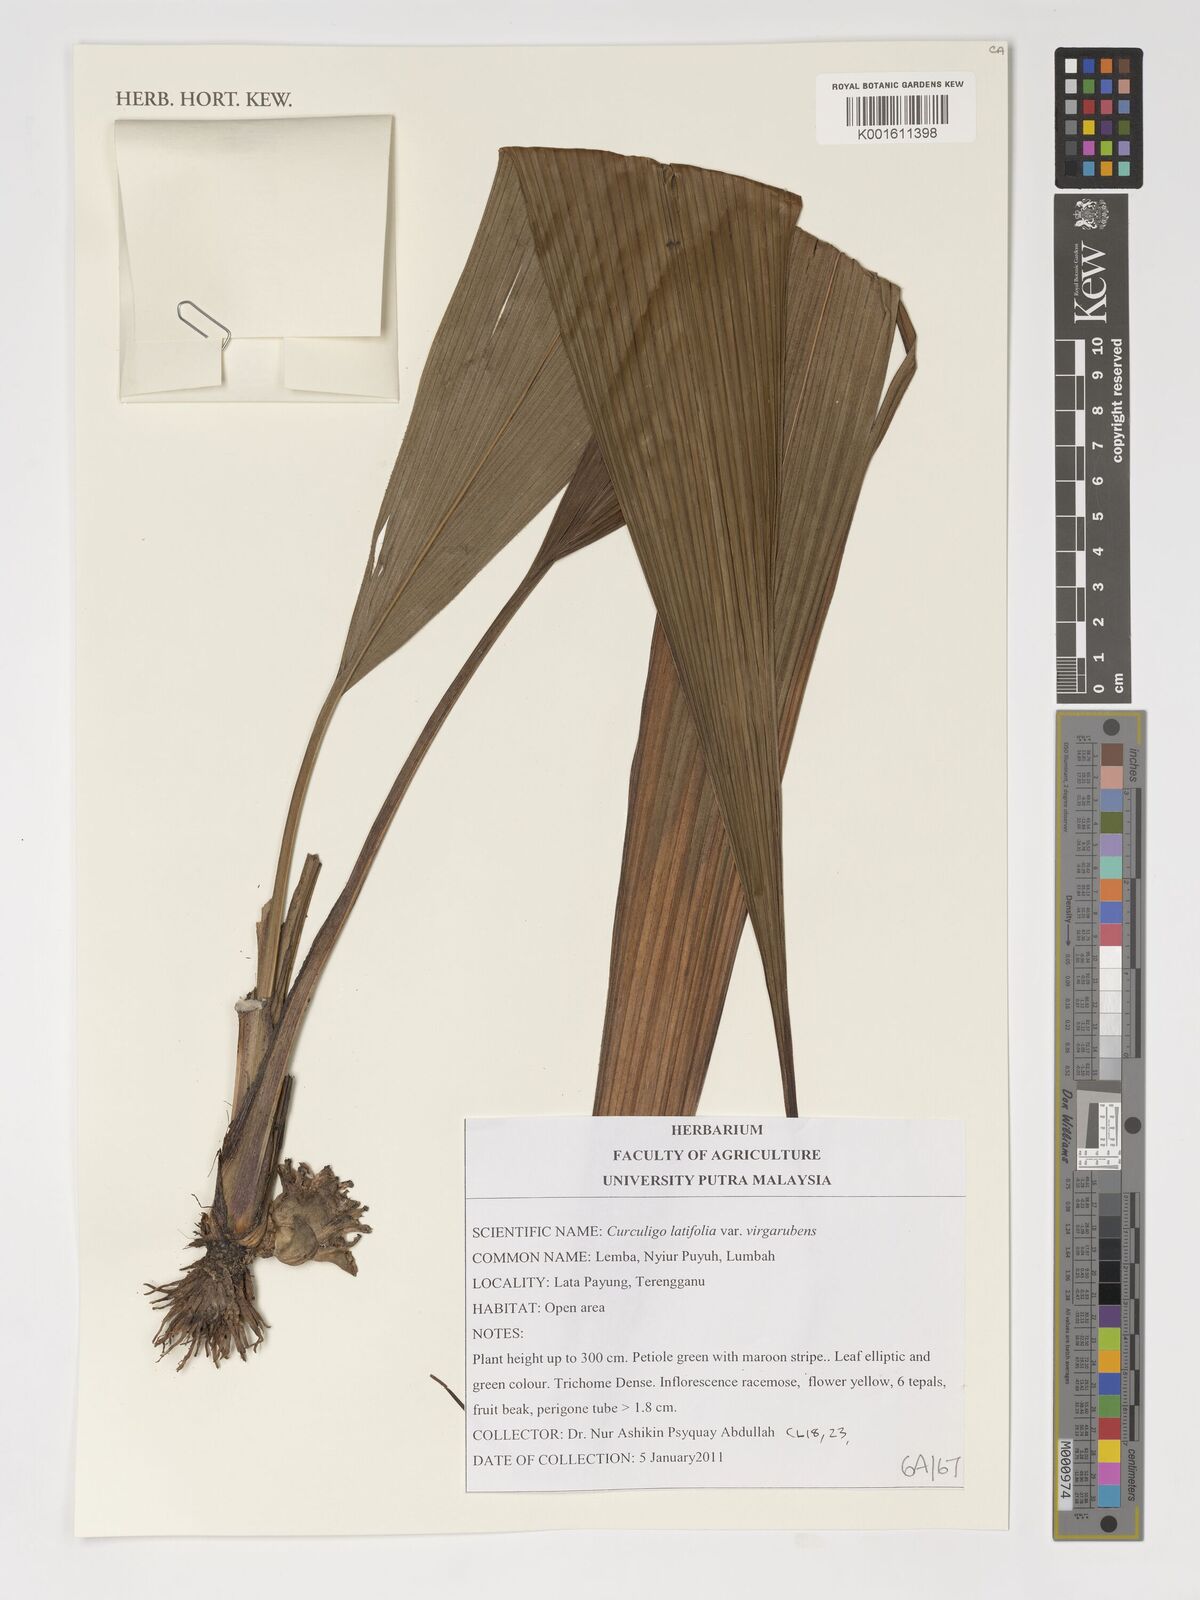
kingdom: Plantae
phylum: Tracheophyta
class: Liliopsida
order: Asparagales
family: Hypoxidaceae
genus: Curculigo
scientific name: Curculigo latifolia
